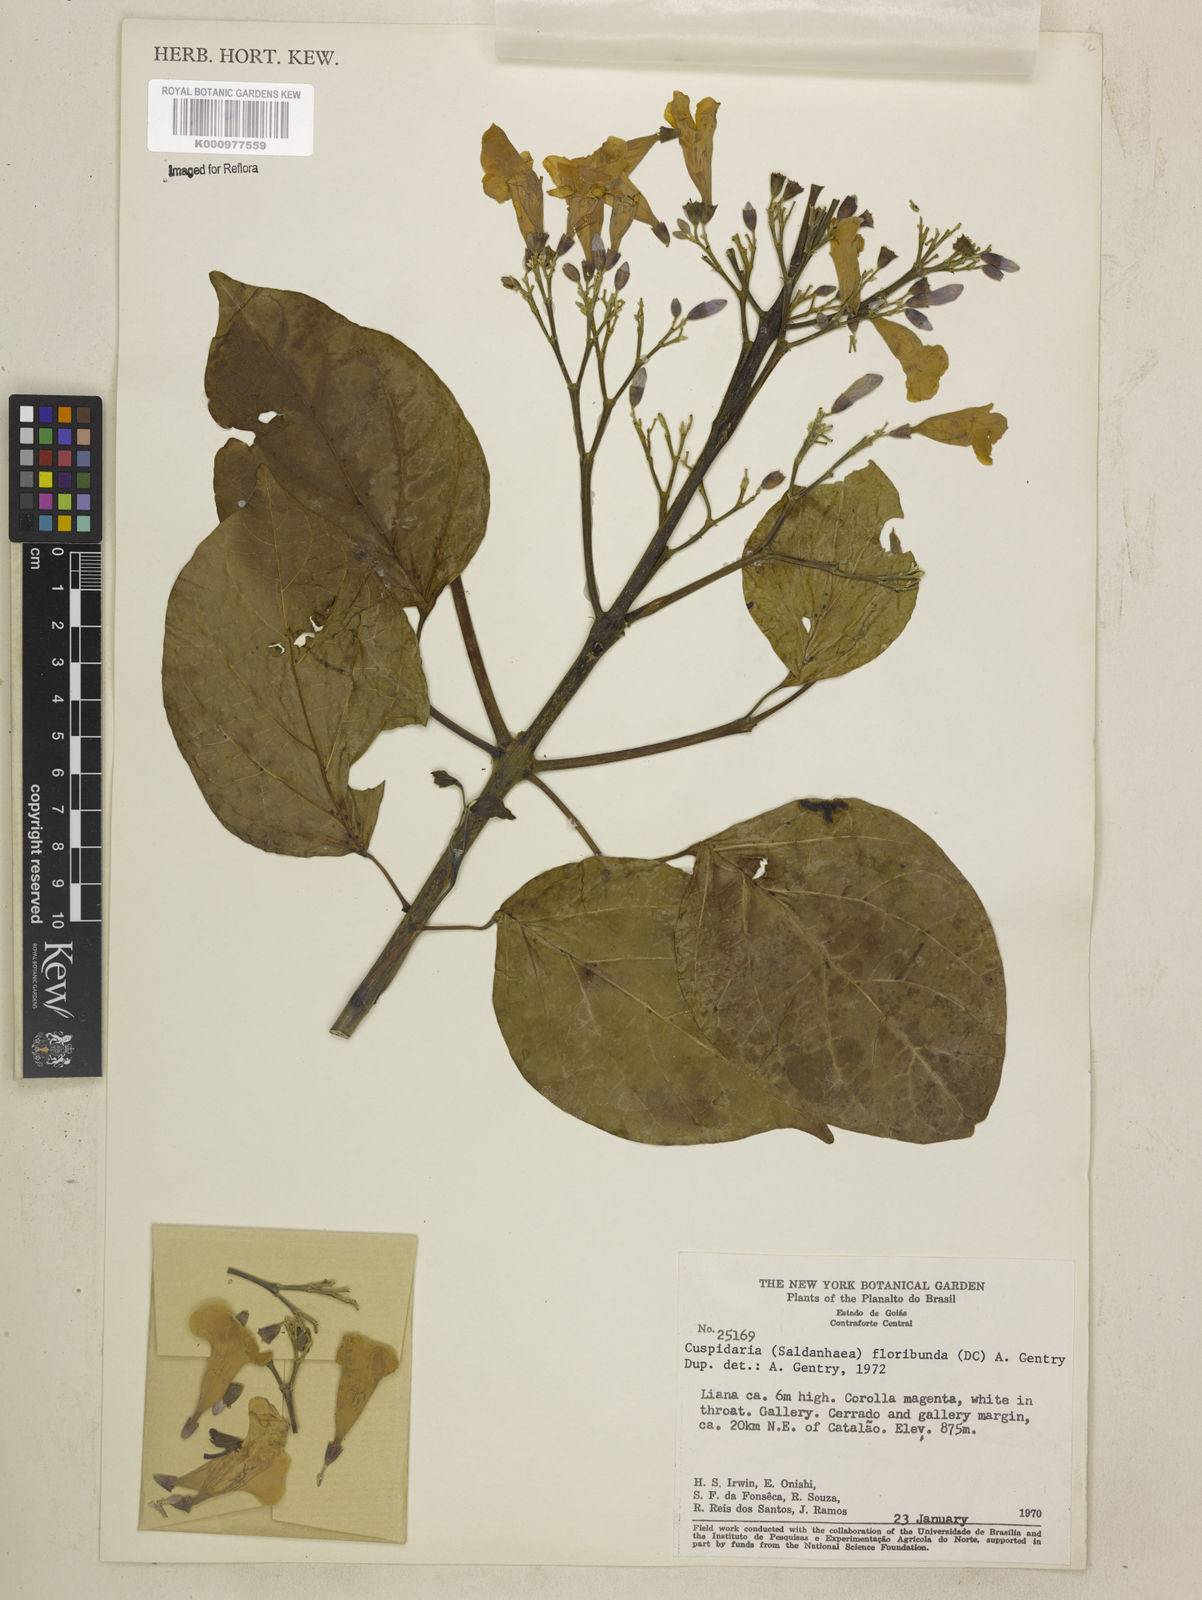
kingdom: Plantae
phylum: Tracheophyta
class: Magnoliopsida
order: Lamiales
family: Bignoniaceae
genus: Cuspidaria
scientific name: Cuspidaria floribunda
